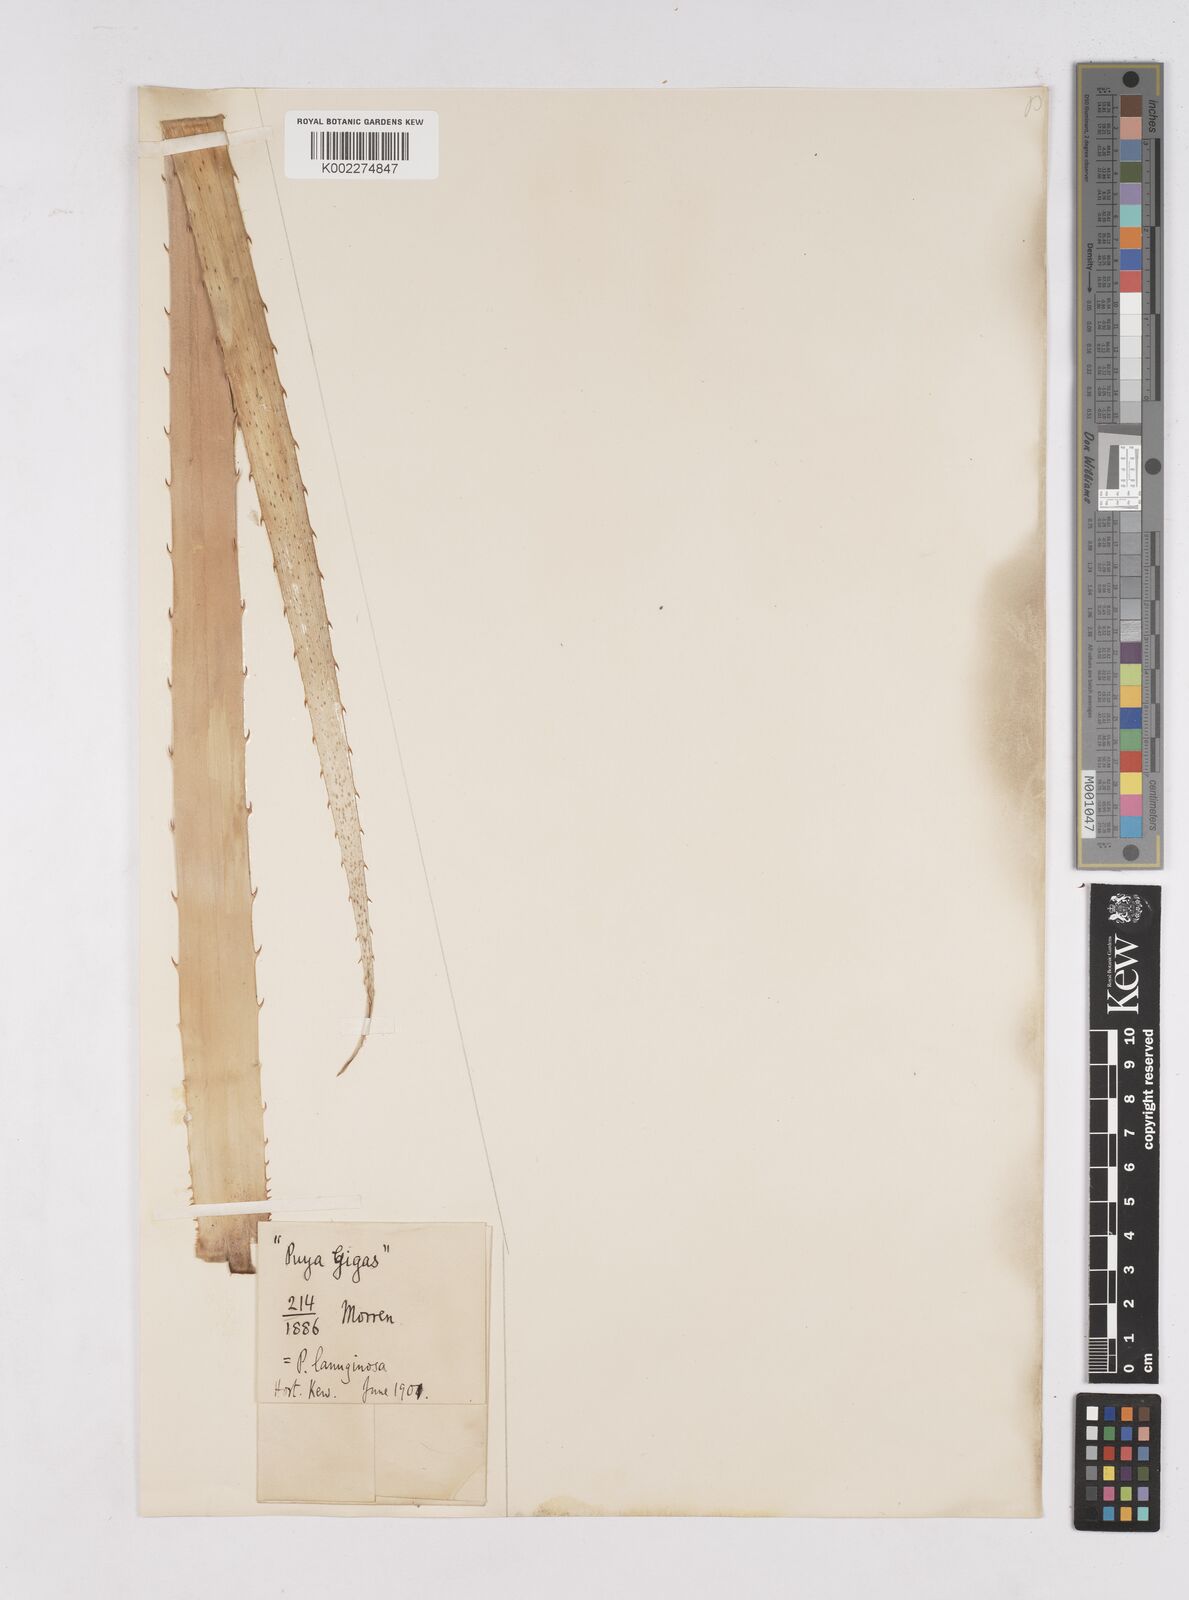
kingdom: Plantae
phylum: Tracheophyta
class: Liliopsida
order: Poales
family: Bromeliaceae
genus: Puya
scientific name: Puya lanuginosa
